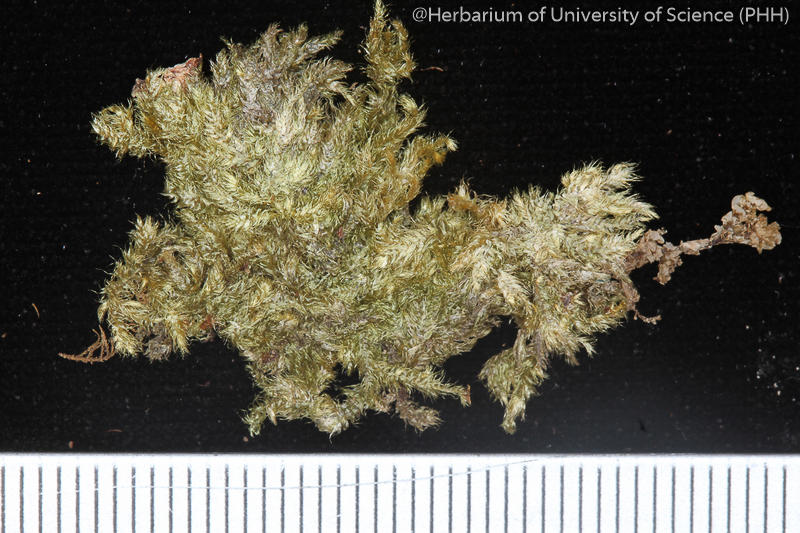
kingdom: Plantae
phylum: Bryophyta
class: Bryopsida
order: Hypnales
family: Myuriaceae
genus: Ctenidium
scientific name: Ctenidium serratifolium
